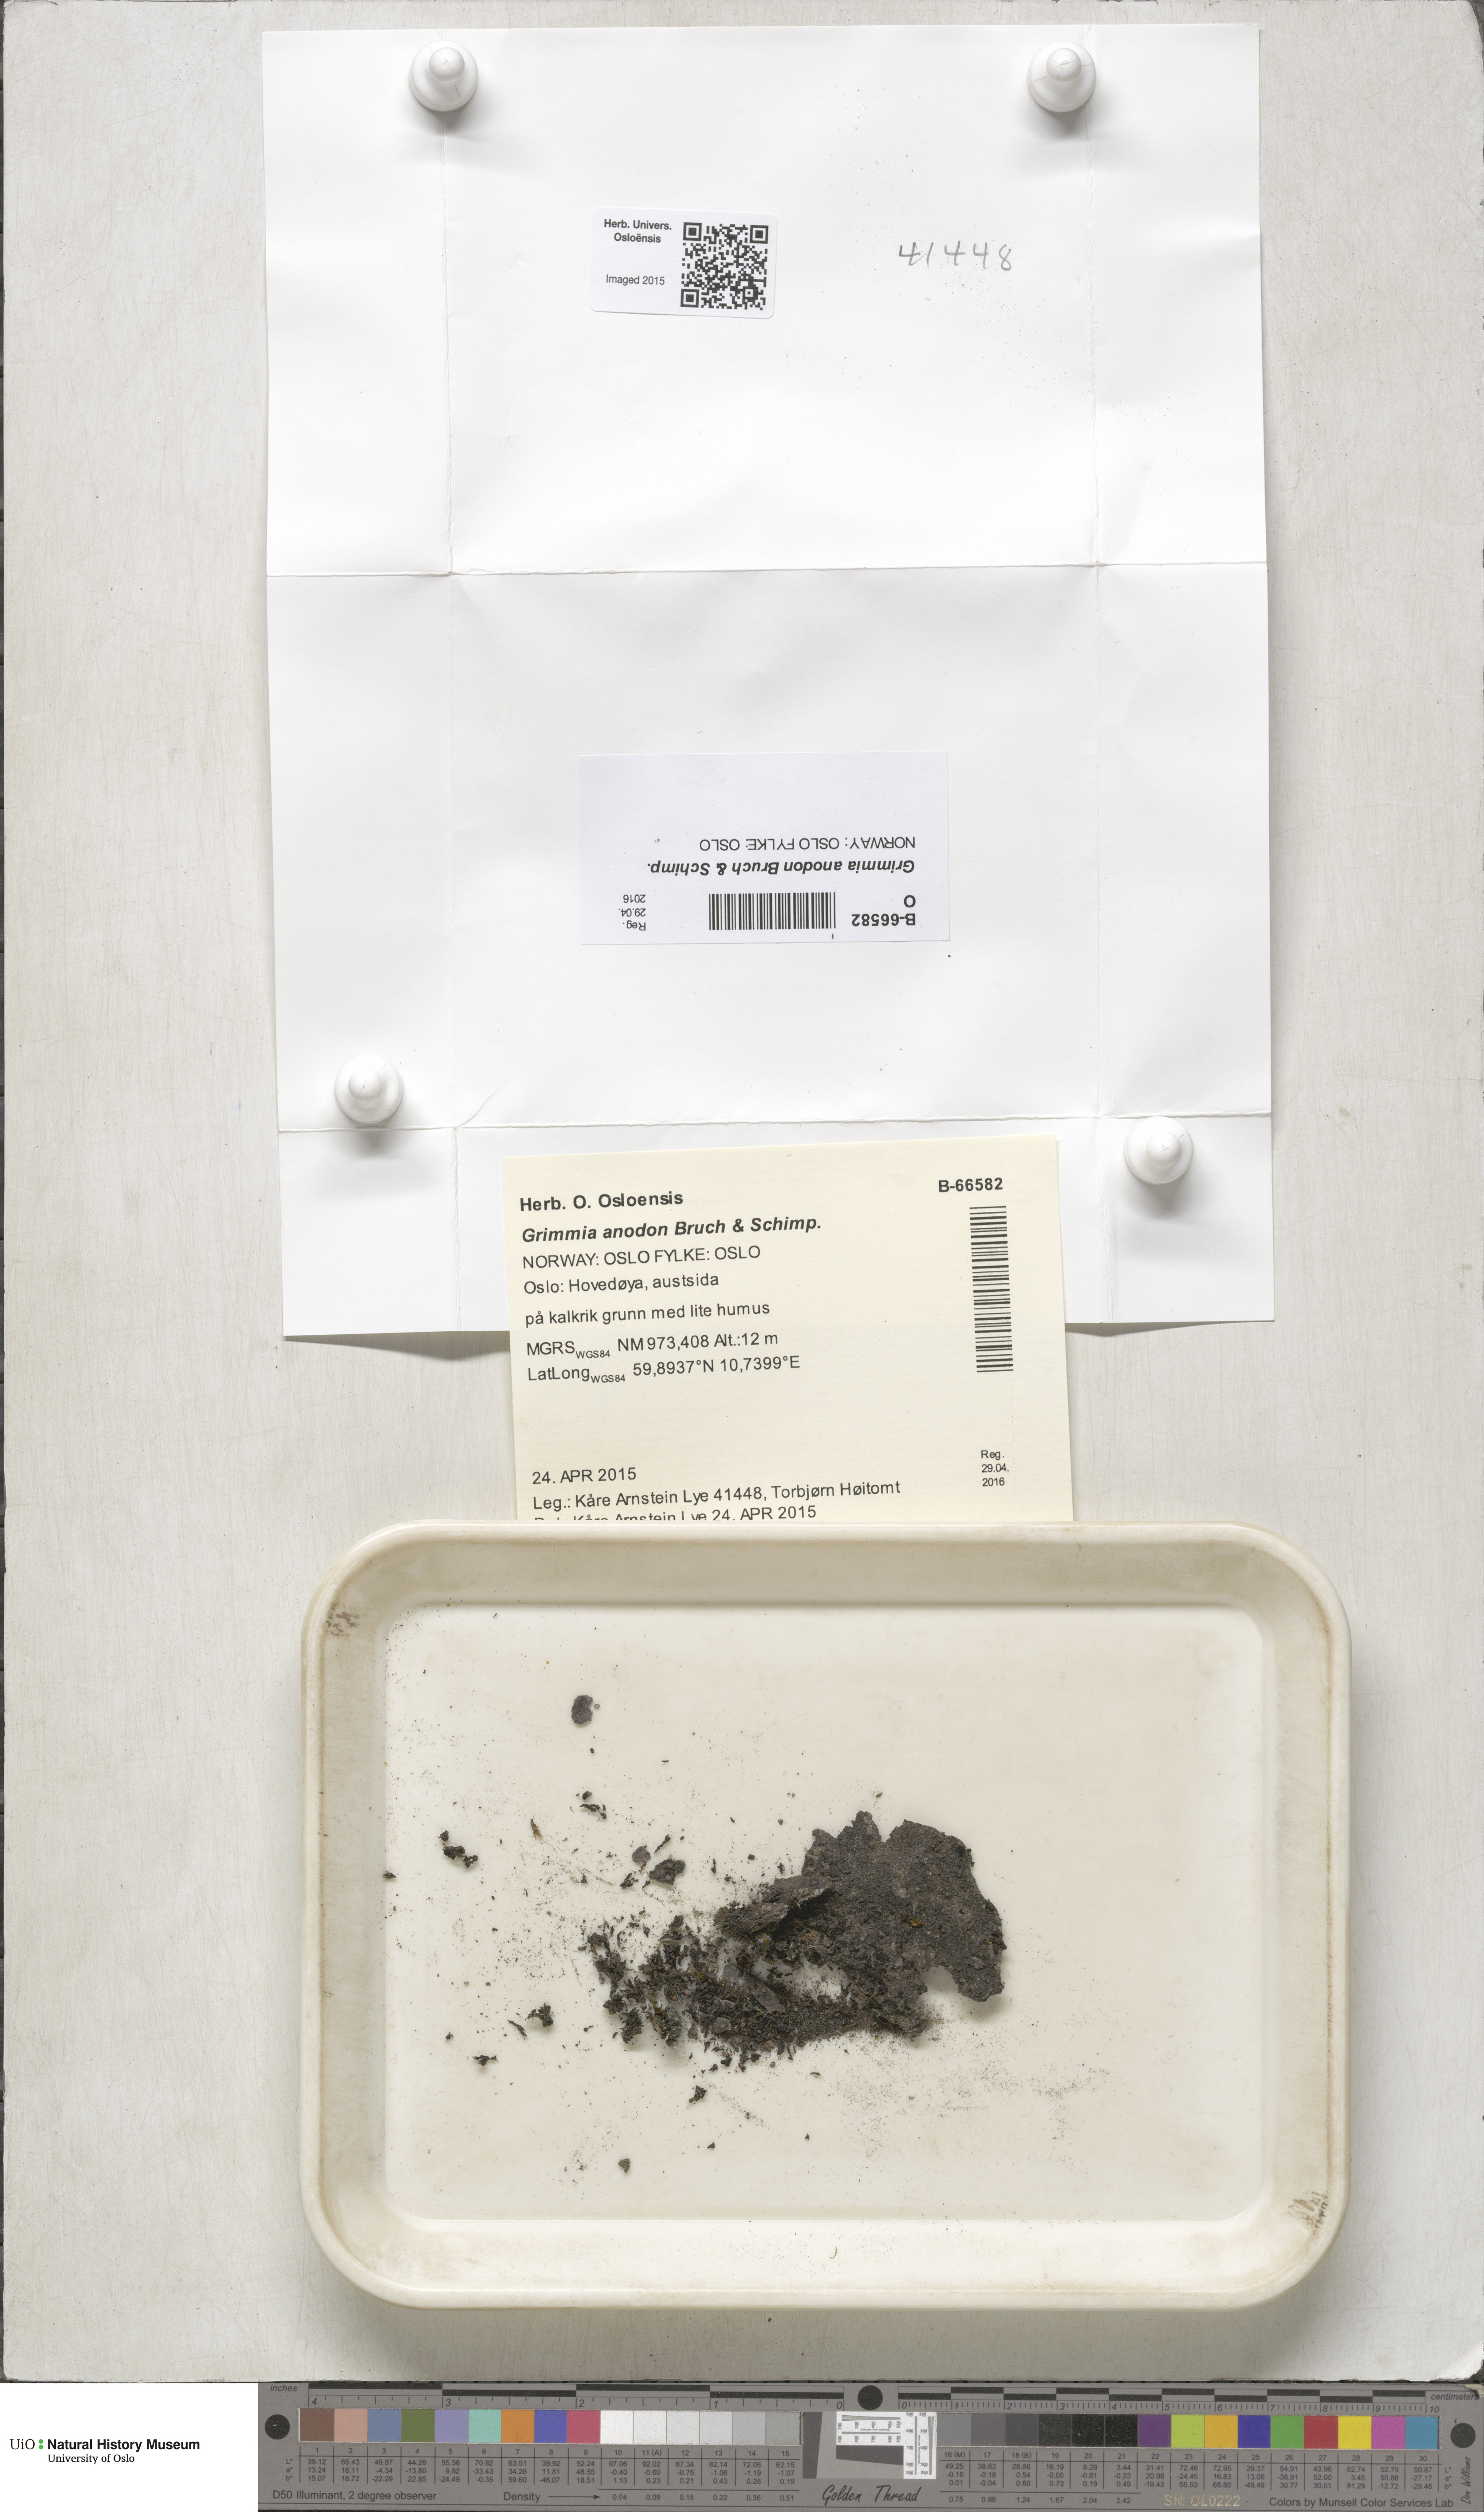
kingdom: Plantae
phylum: Bryophyta
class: Bryopsida
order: Grimmiales
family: Grimmiaceae
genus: Grimmia
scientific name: Grimmia anodon
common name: Toothless grimmia
